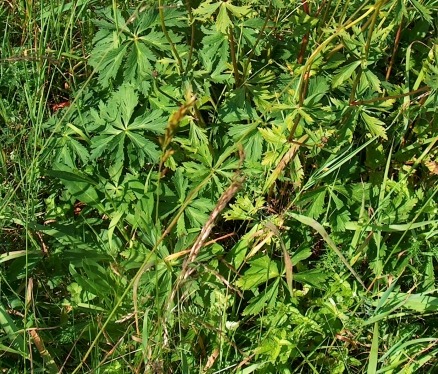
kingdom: Plantae
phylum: Tracheophyta
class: Magnoliopsida
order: Ranunculales
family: Ranunculaceae
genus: Trollius
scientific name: Trollius europaeus
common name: Engblomme
